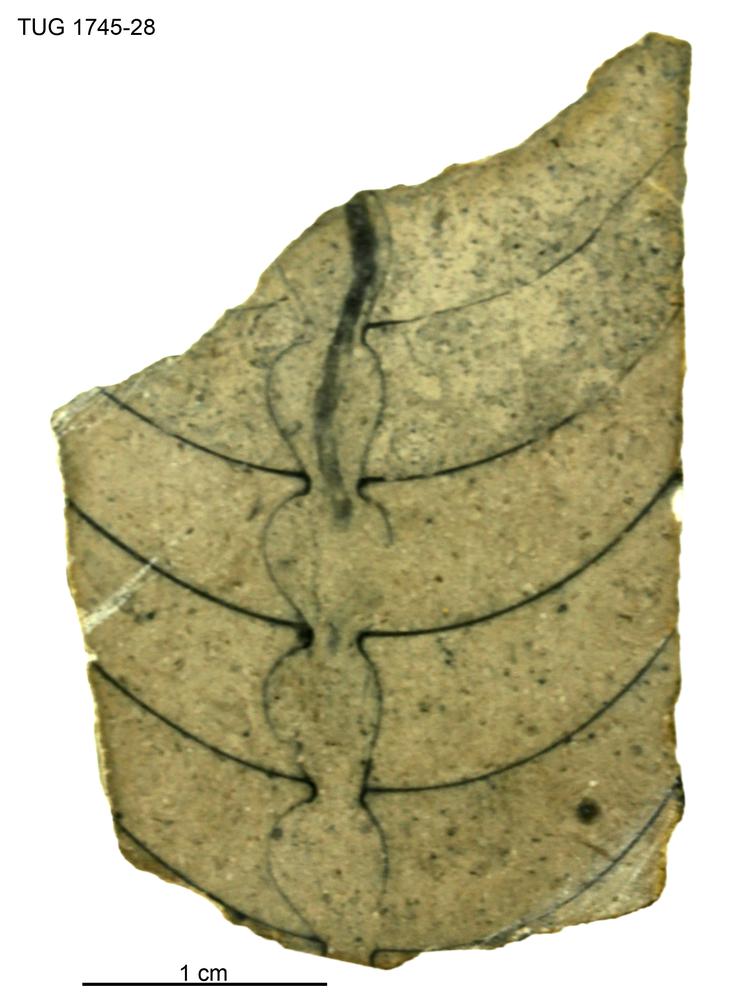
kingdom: Animalia
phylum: Mollusca
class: Cephalopoda
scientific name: Cephalopoda
